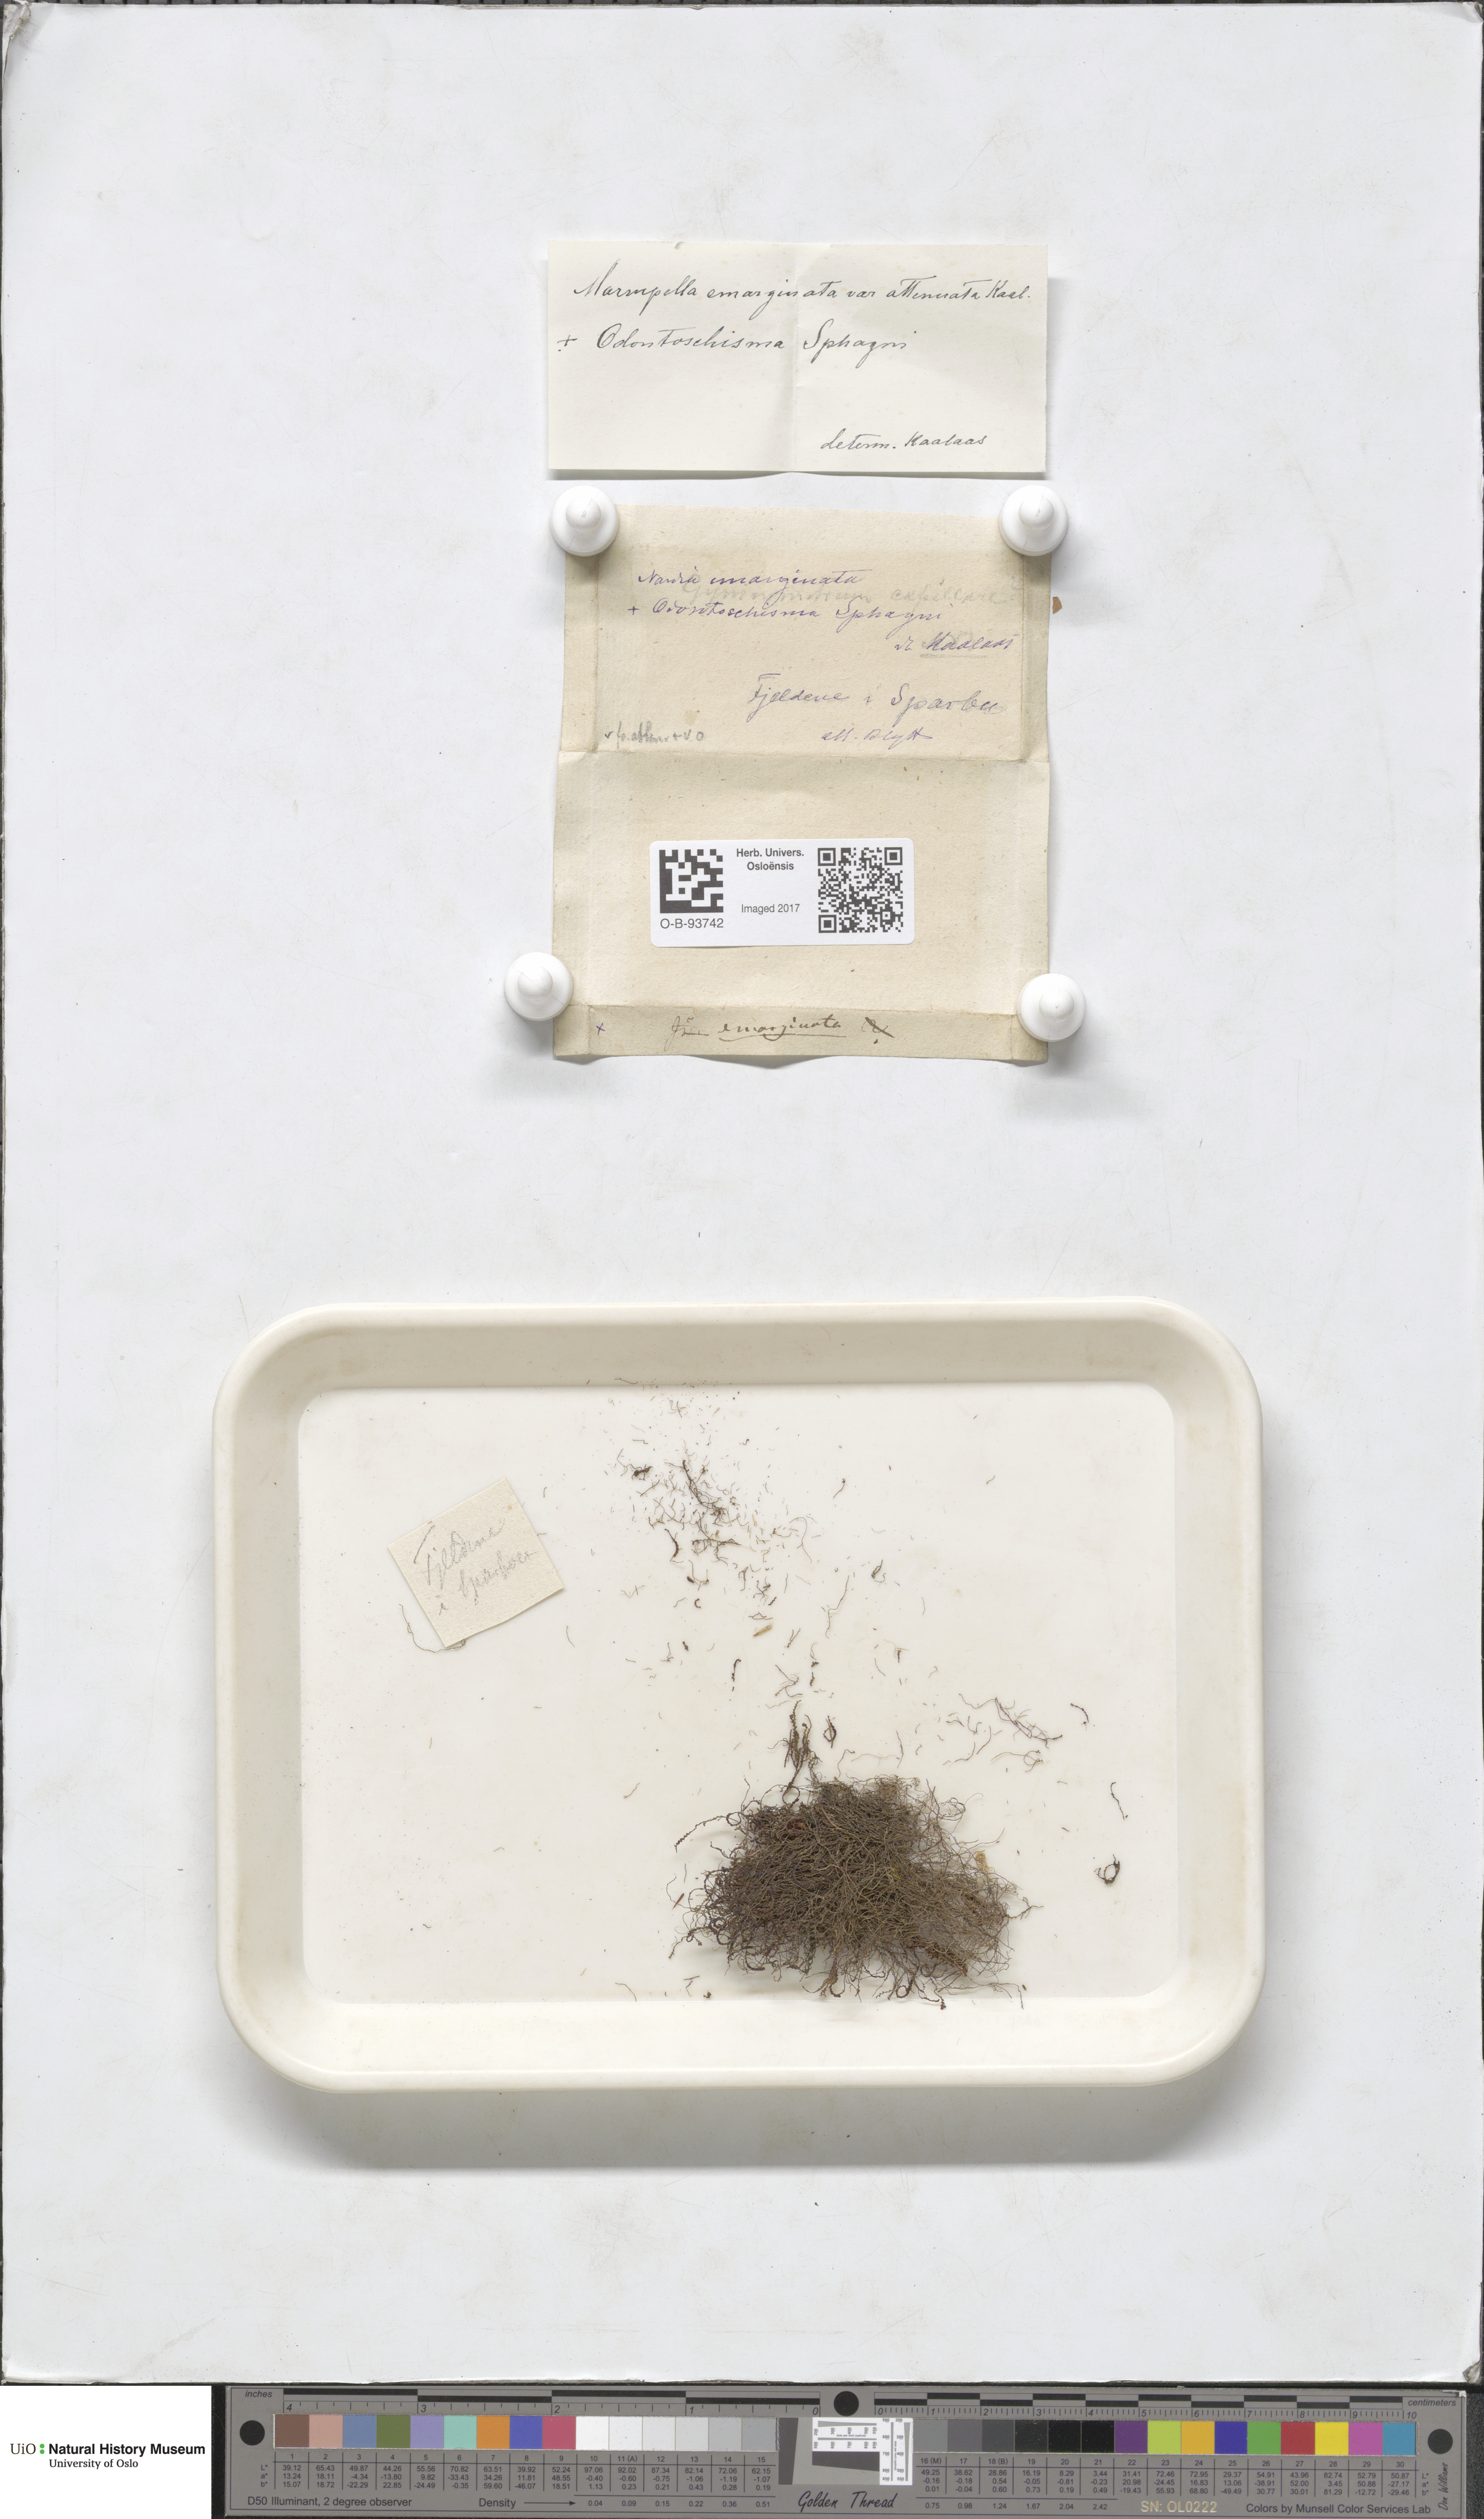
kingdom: Plantae
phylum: Marchantiophyta
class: Jungermanniopsida
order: Jungermanniales
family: Gymnomitriaceae
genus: Marsupella
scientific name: Marsupella emarginata
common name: Notched rustwort
